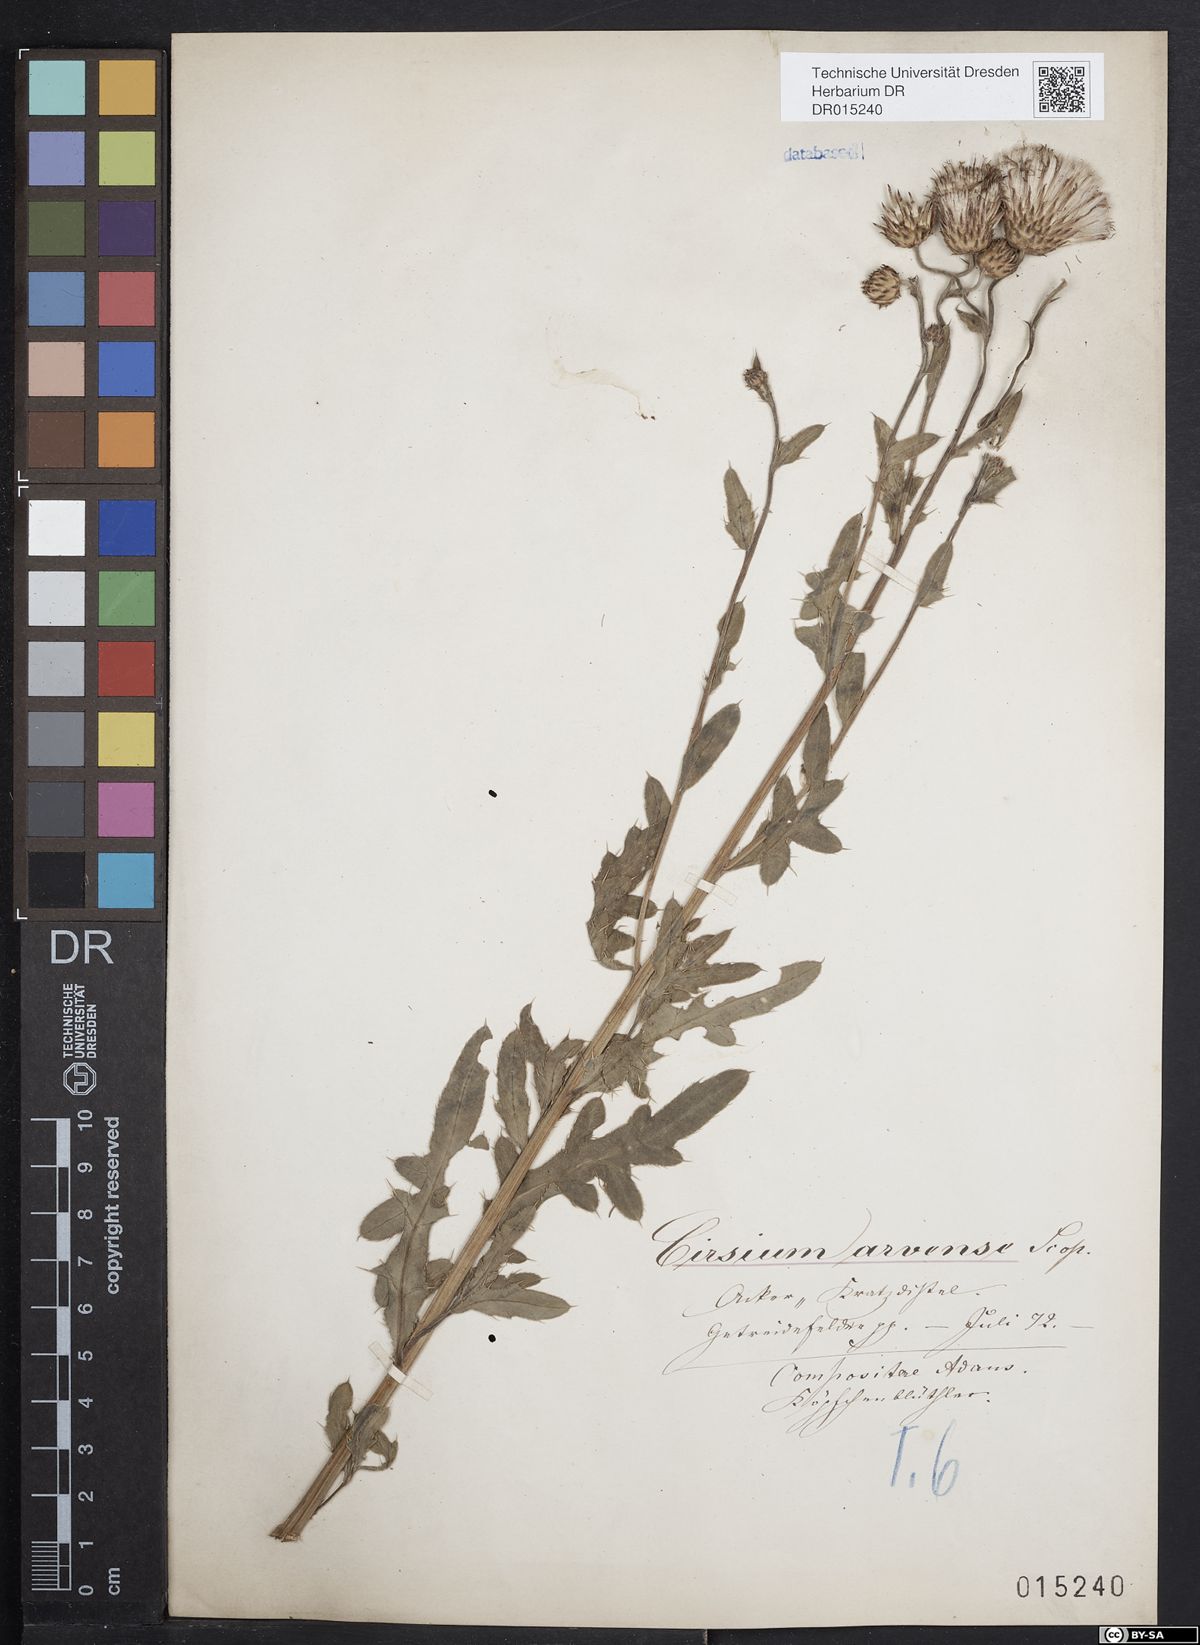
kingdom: Plantae
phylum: Tracheophyta
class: Magnoliopsida
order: Asterales
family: Asteraceae
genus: Cirsium
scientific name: Cirsium arvense
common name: Creeping thistle
